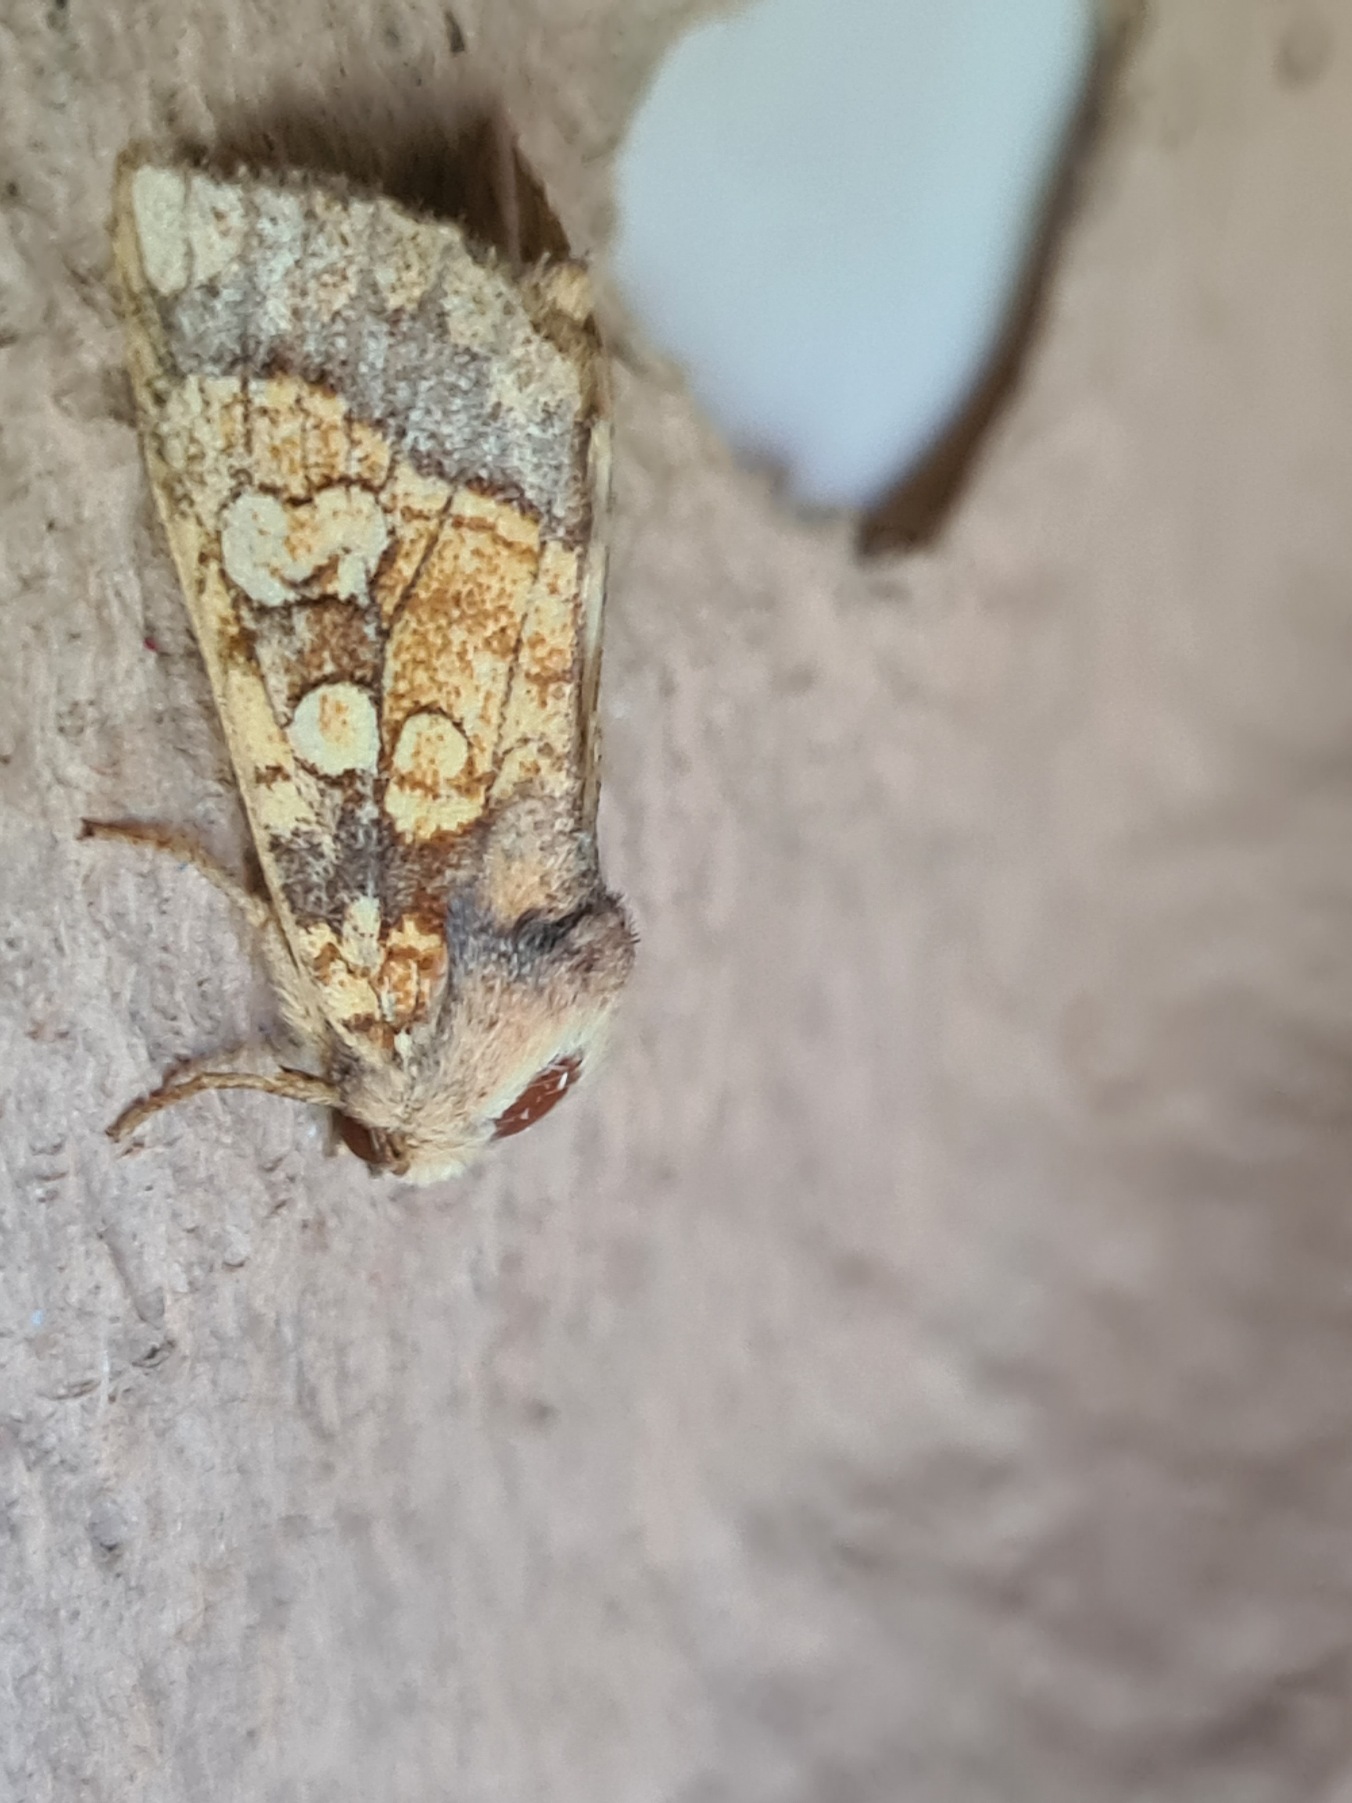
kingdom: Animalia
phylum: Arthropoda
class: Insecta
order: Lepidoptera
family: Noctuidae
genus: Gortyna
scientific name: Gortyna flavago
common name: Burreugle
